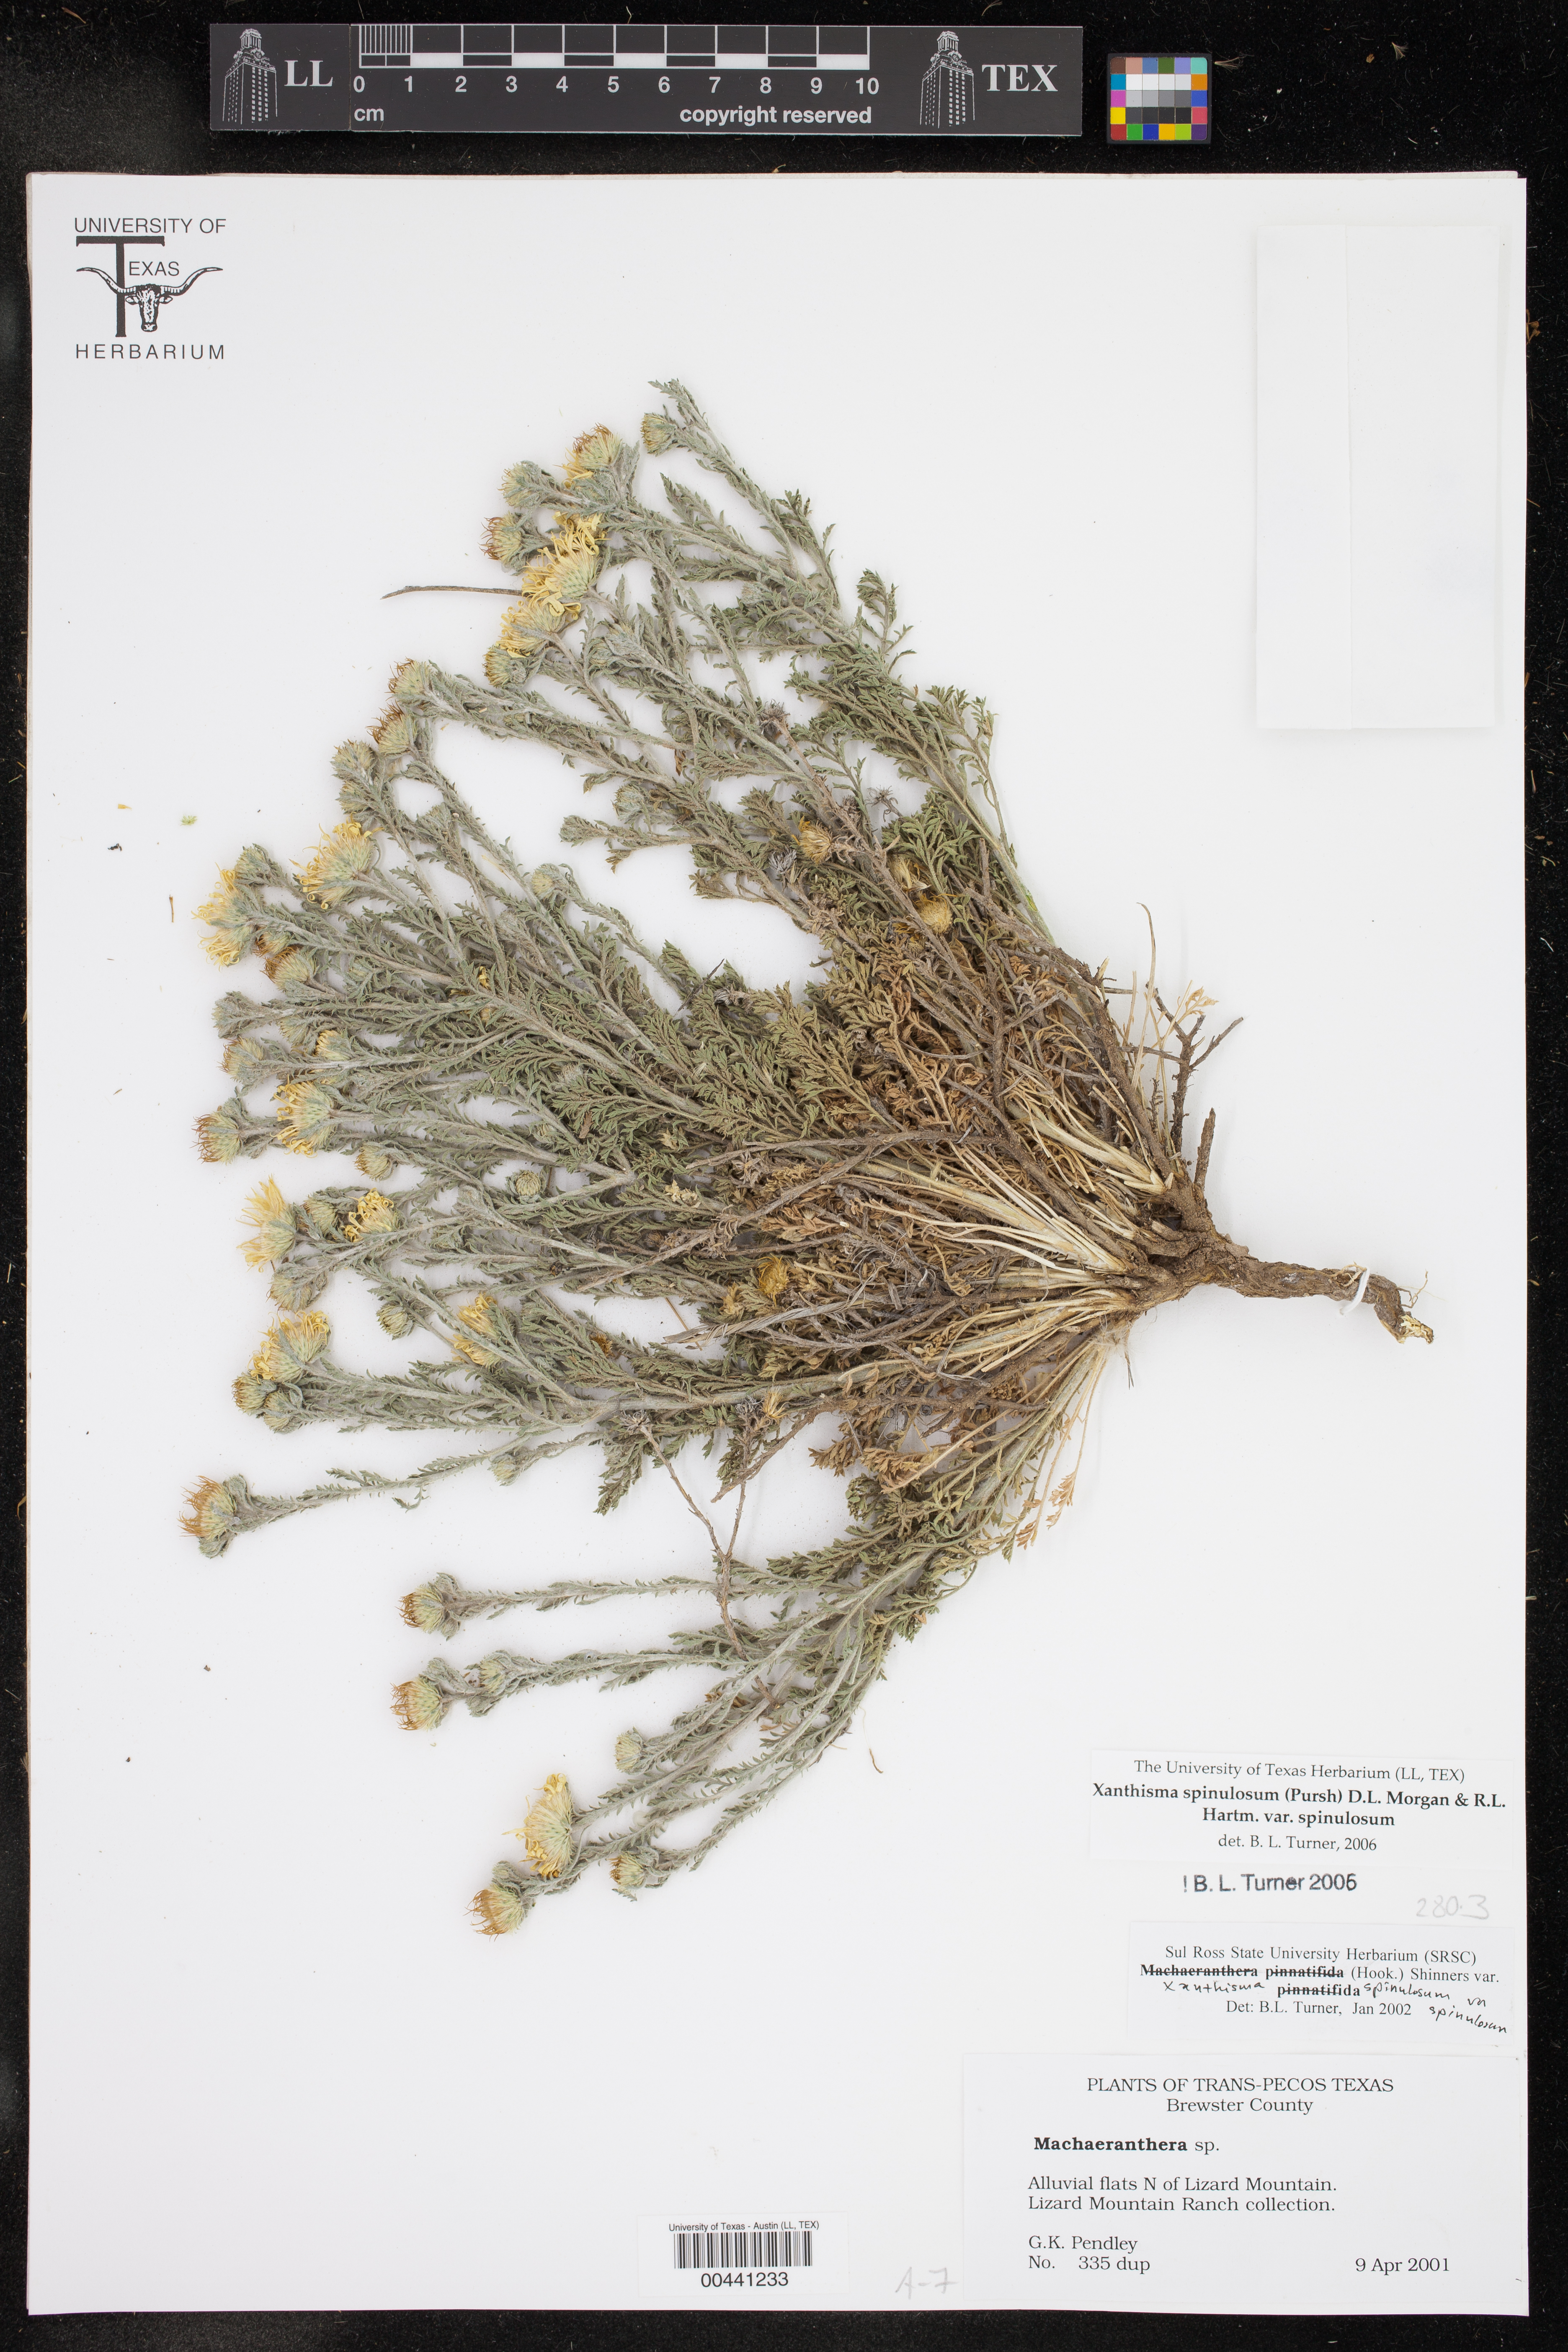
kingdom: Plantae
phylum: Tracheophyta
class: Magnoliopsida
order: Asterales
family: Asteraceae
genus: Xanthisma
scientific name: Xanthisma spinulosum
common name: Spiny goldenweed
